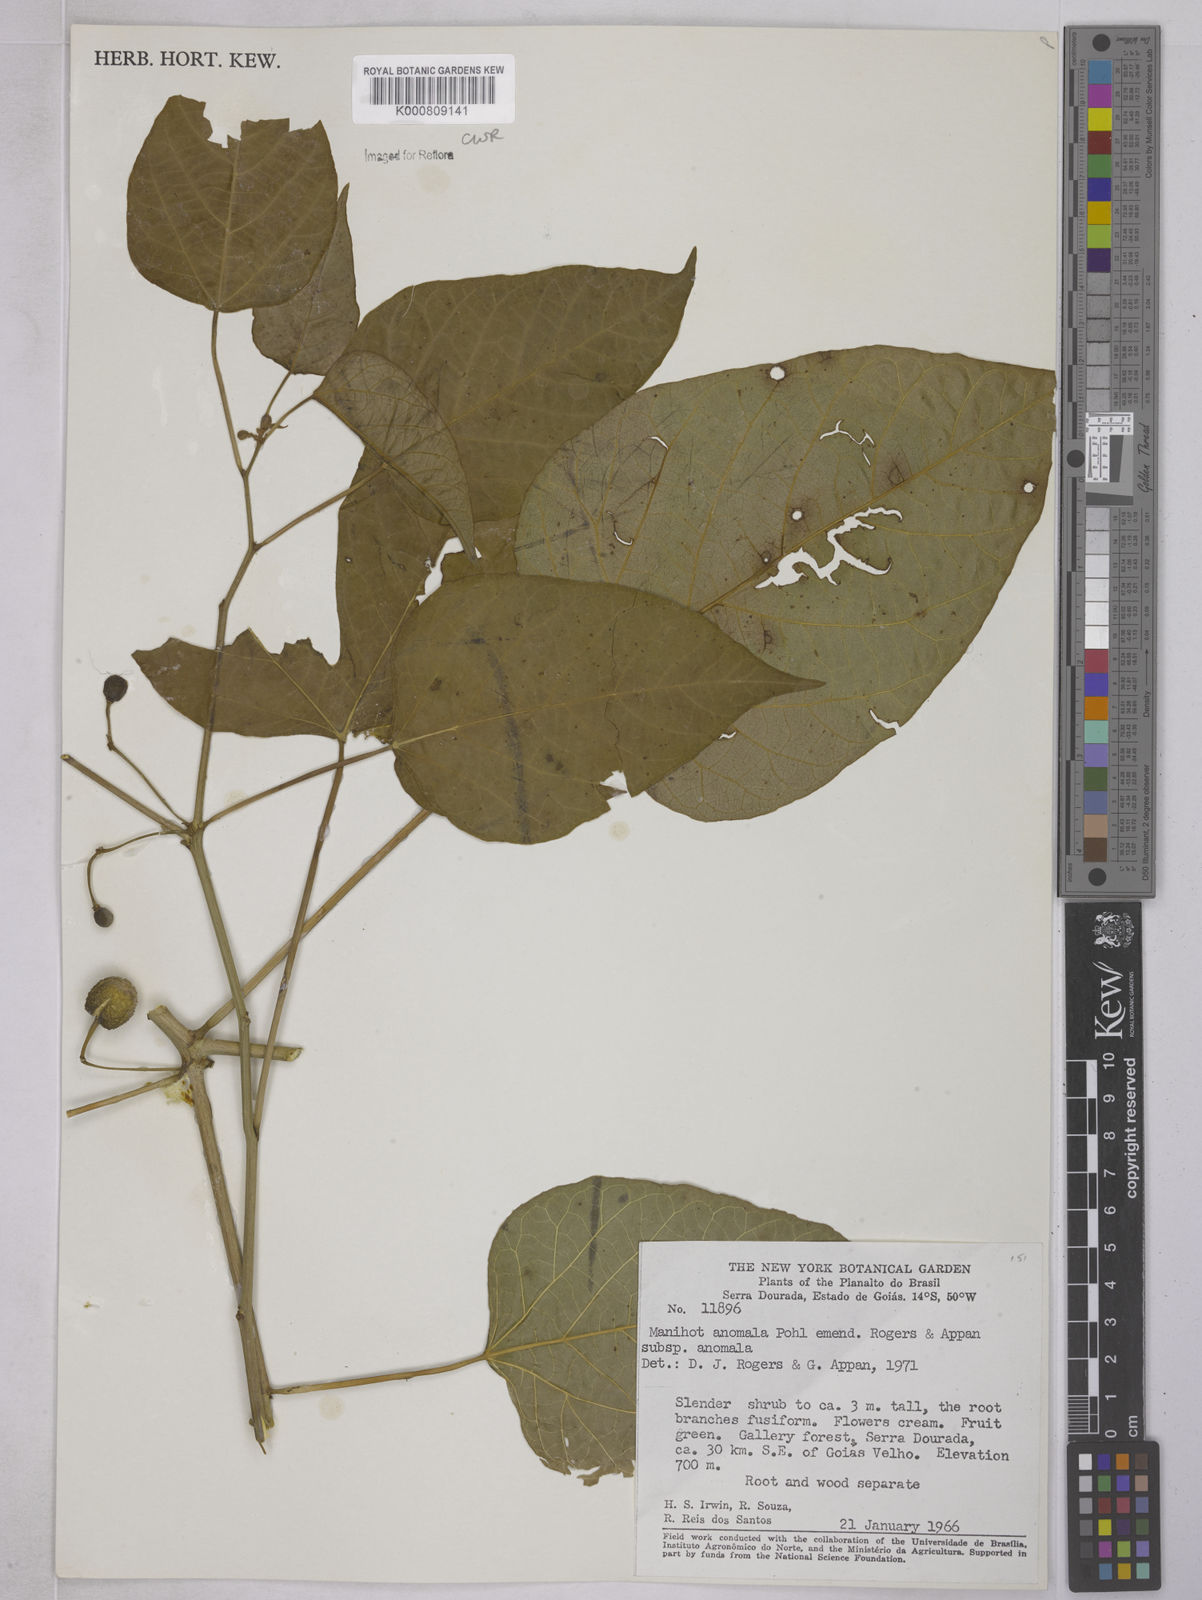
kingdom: Plantae
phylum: Tracheophyta
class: Magnoliopsida
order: Malpighiales
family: Euphorbiaceae
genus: Manihot
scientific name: Manihot anomala
